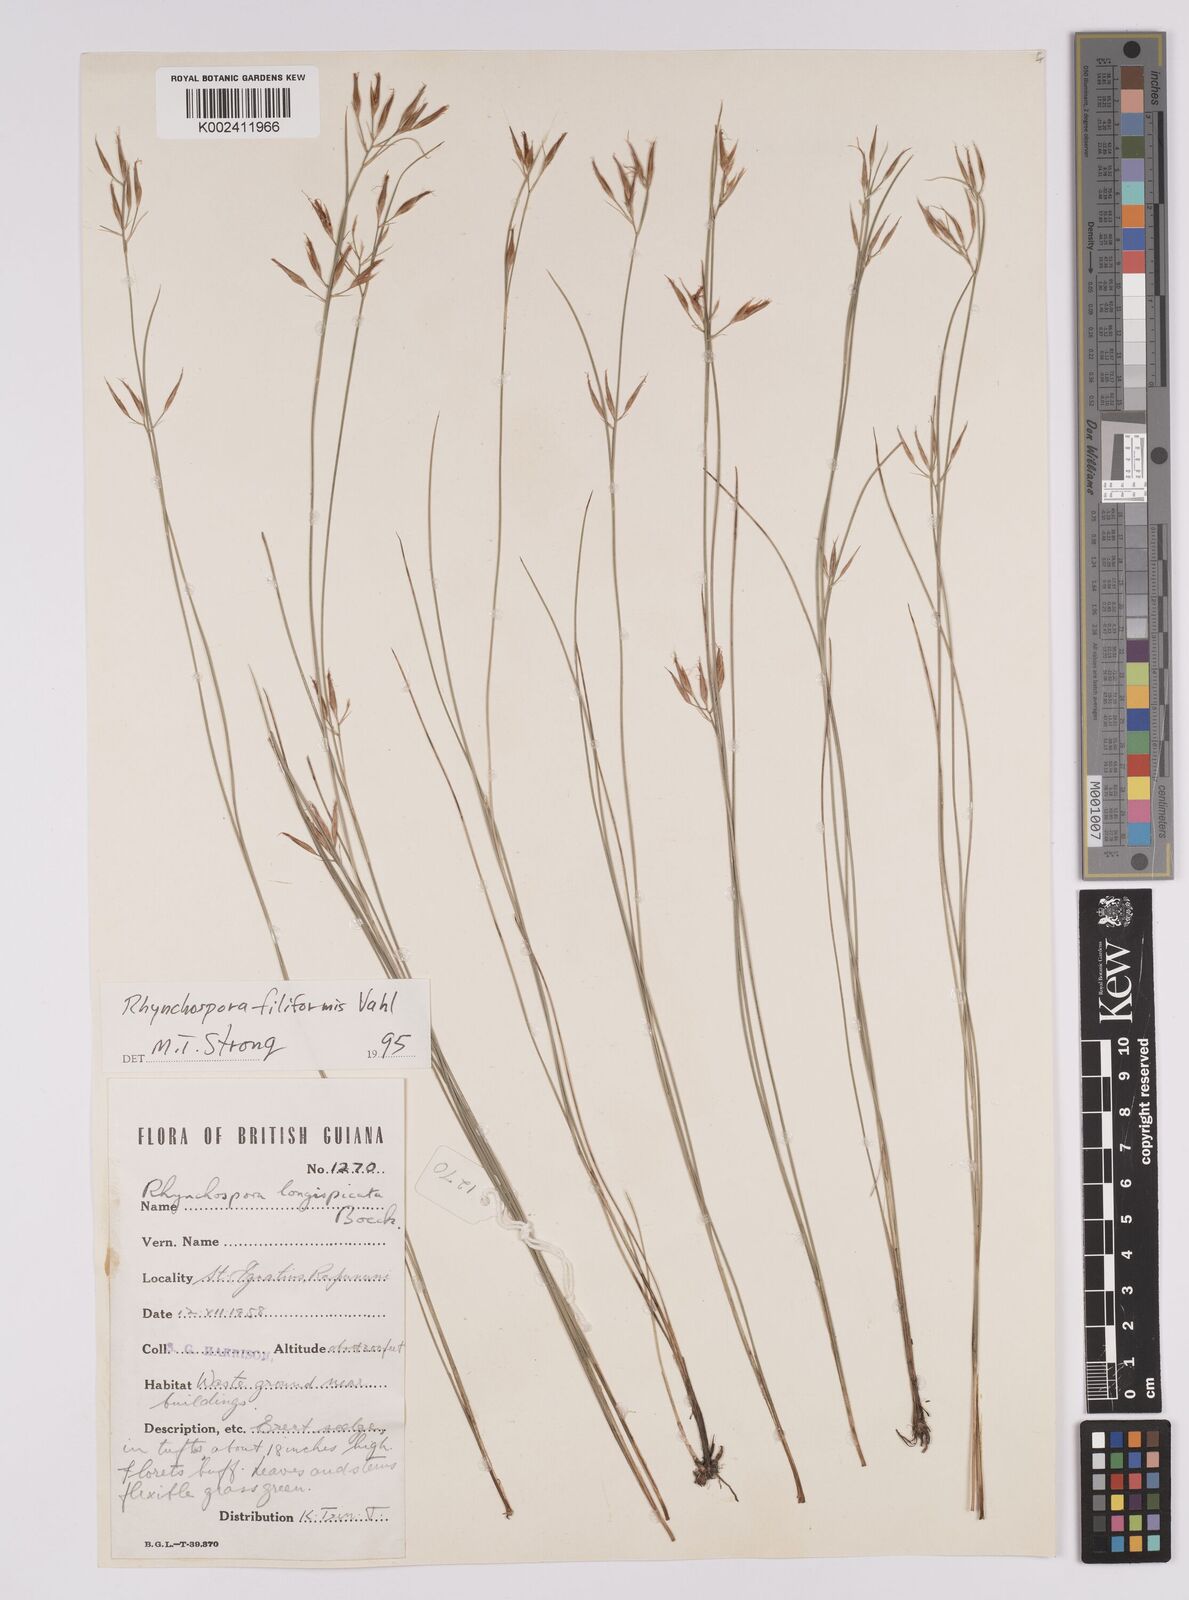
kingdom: Plantae
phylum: Tracheophyta
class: Liliopsida
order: Poales
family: Cyperaceae
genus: Rhynchospora
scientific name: Rhynchospora filiformis
